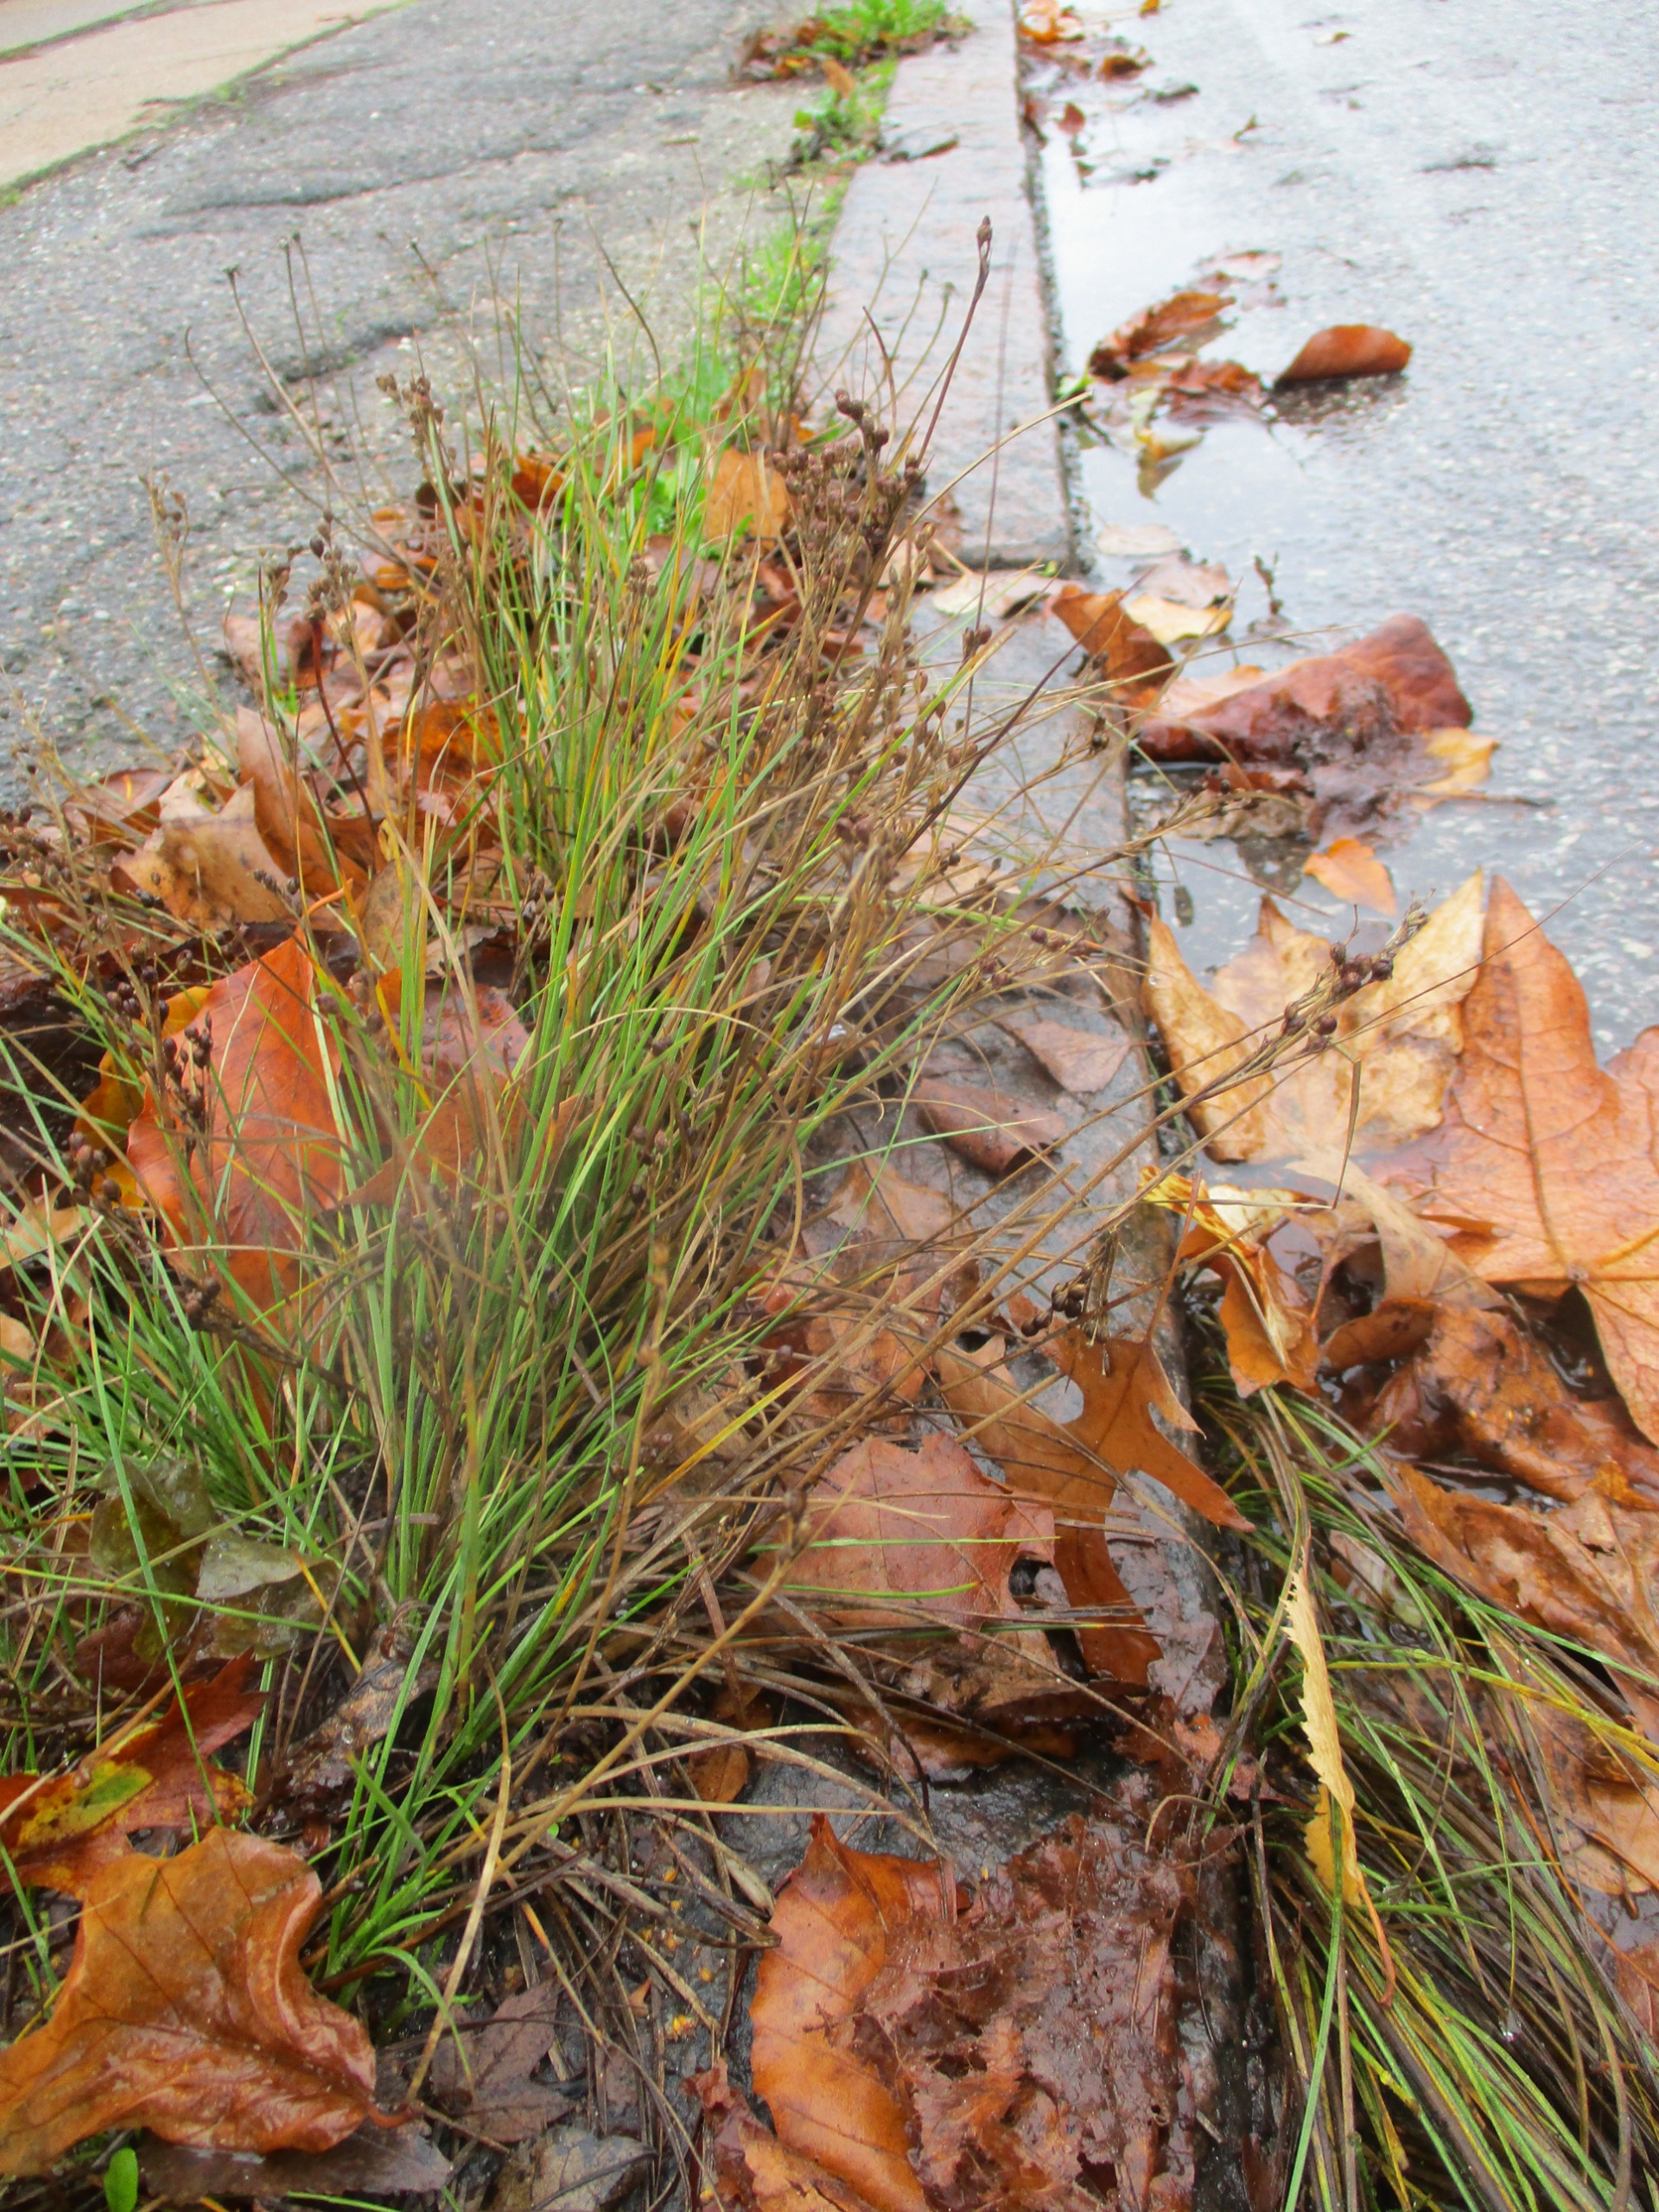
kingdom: Plantae
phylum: Tracheophyta
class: Liliopsida
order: Poales
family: Juncaceae
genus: Juncus
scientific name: Juncus compressus
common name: Fladstrået siv
